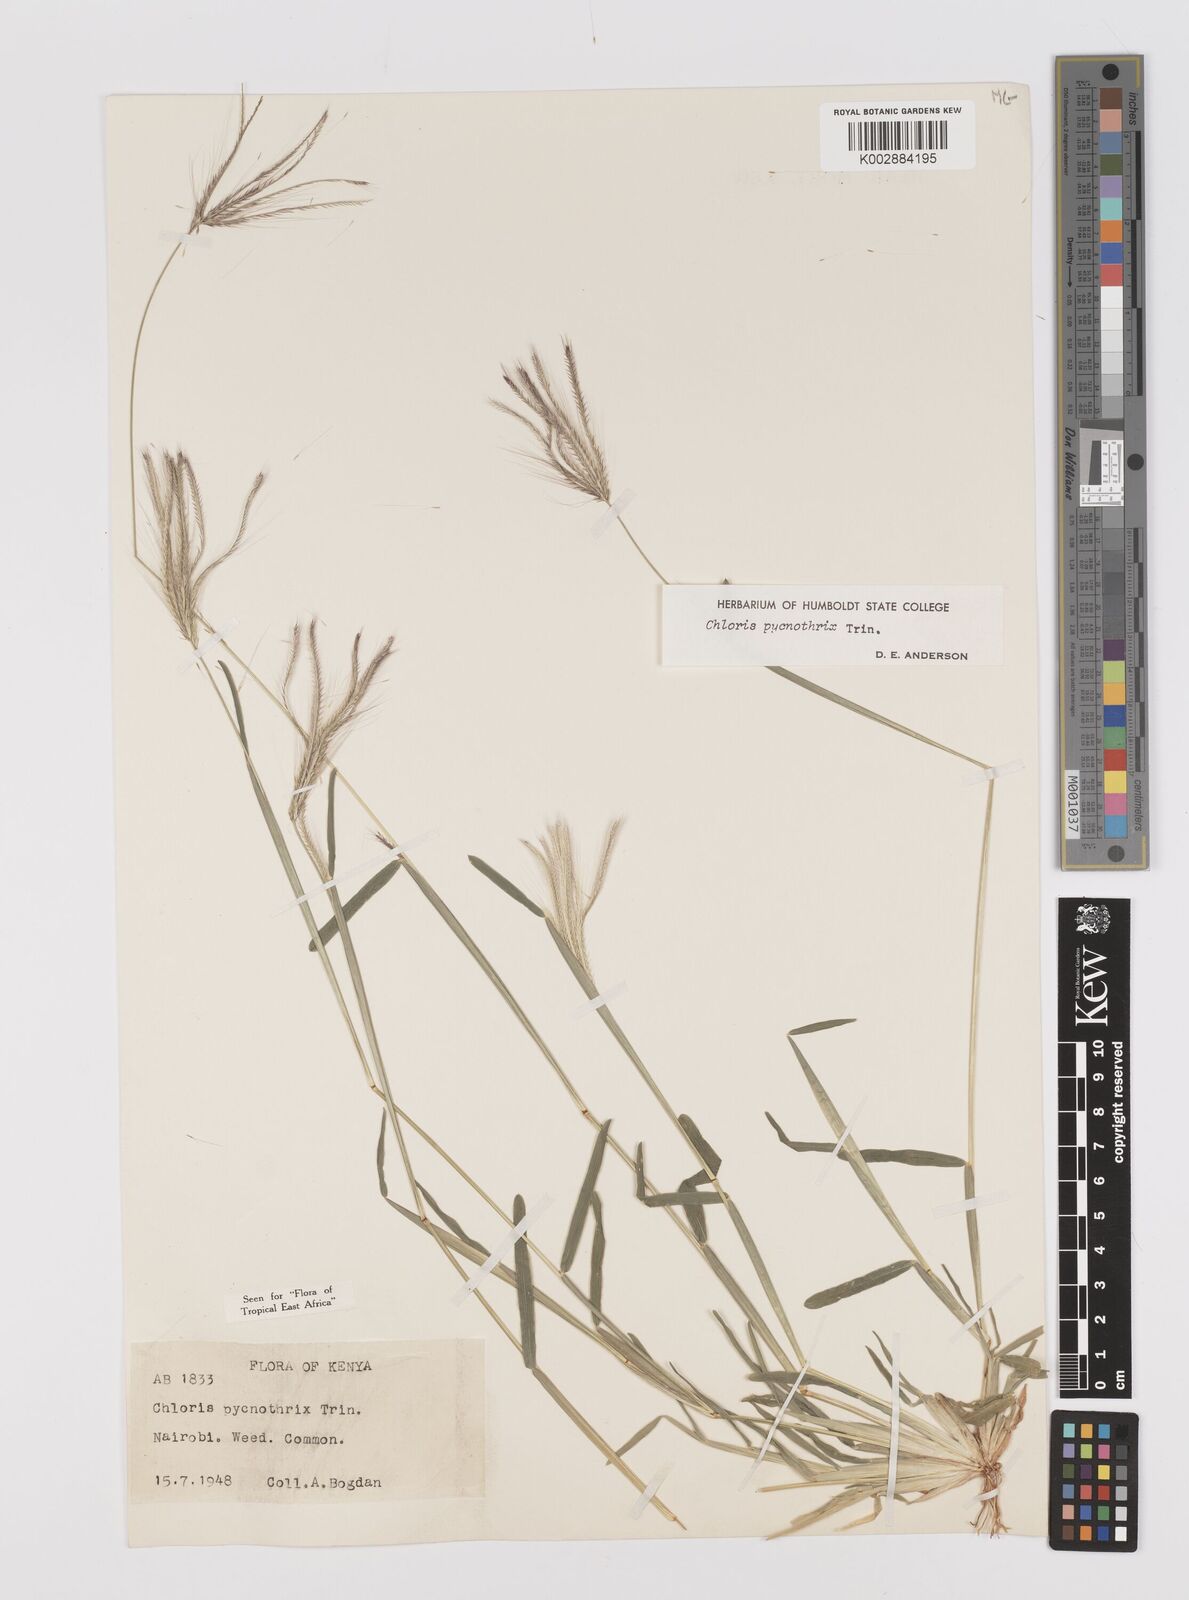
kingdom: Plantae
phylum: Tracheophyta
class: Liliopsida
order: Poales
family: Poaceae
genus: Chloris
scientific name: Chloris pycnothrix
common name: Spiderweb chloris
